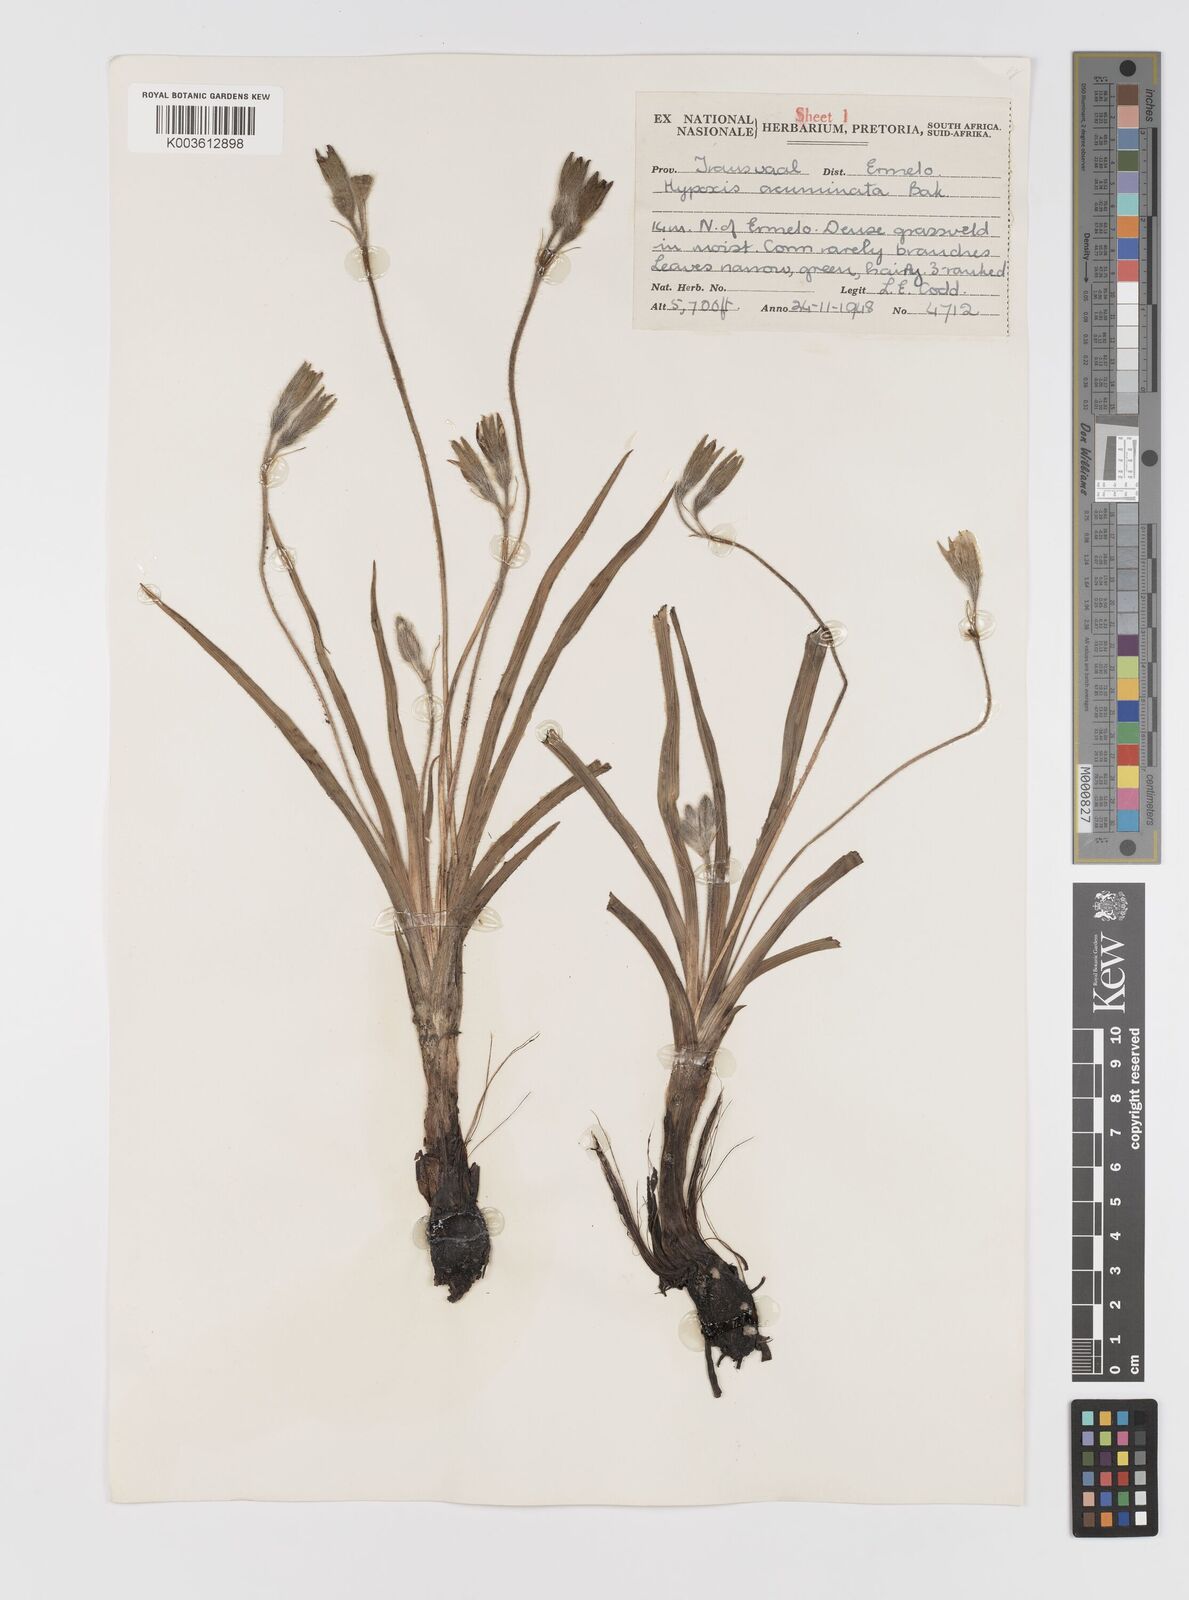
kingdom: Plantae
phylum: Tracheophyta
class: Liliopsida
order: Asparagales
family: Hypoxidaceae
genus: Hypoxis
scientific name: Hypoxis acuminata
